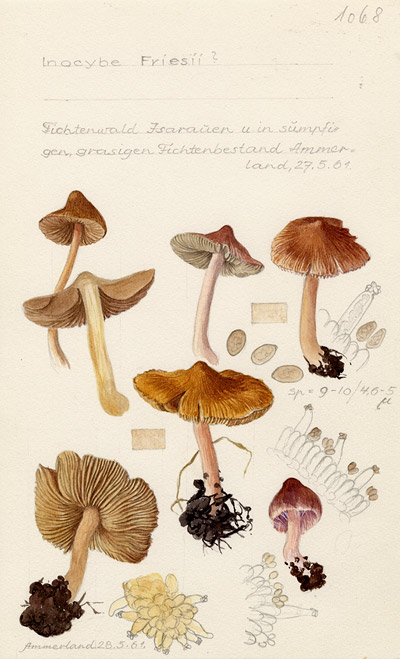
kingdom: Fungi
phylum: Basidiomycota
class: Agaricomycetes
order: Agaricales
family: Inocybaceae
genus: Inocybe
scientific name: Inocybe nitidiuscula
